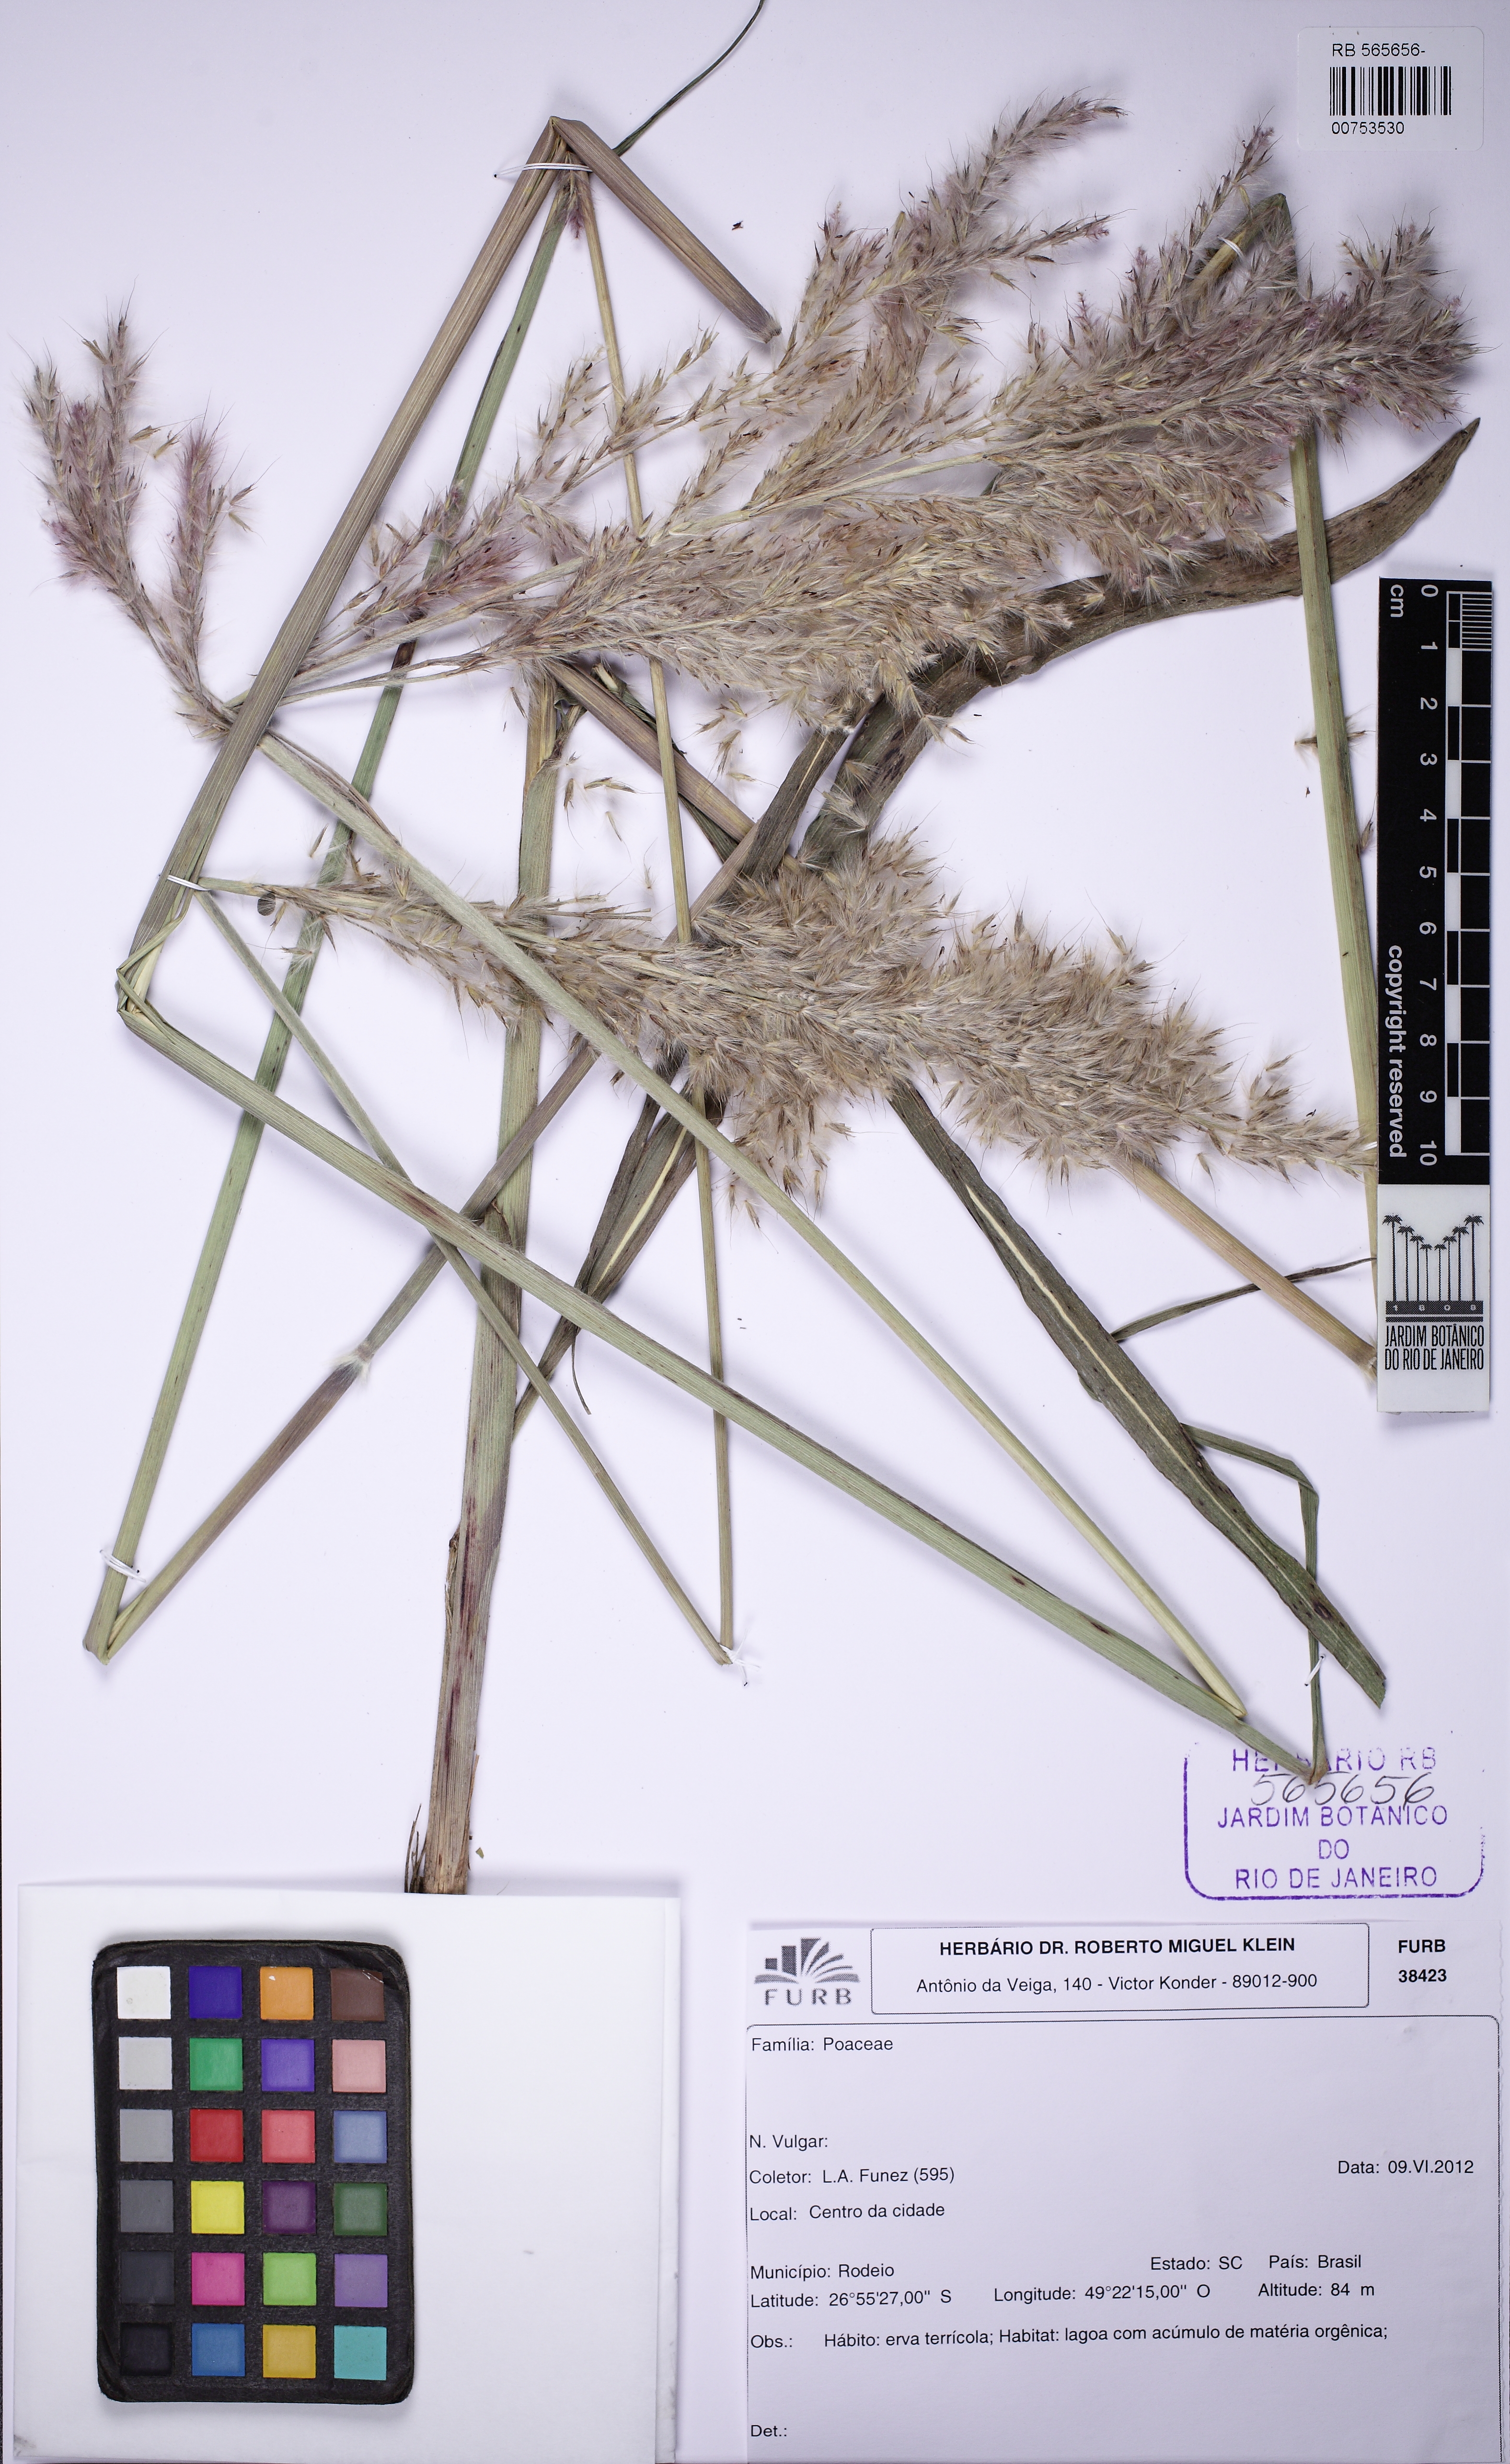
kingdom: Plantae
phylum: Tracheophyta
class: Liliopsida
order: Poales
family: Poaceae
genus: Saccharum
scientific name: Saccharum
